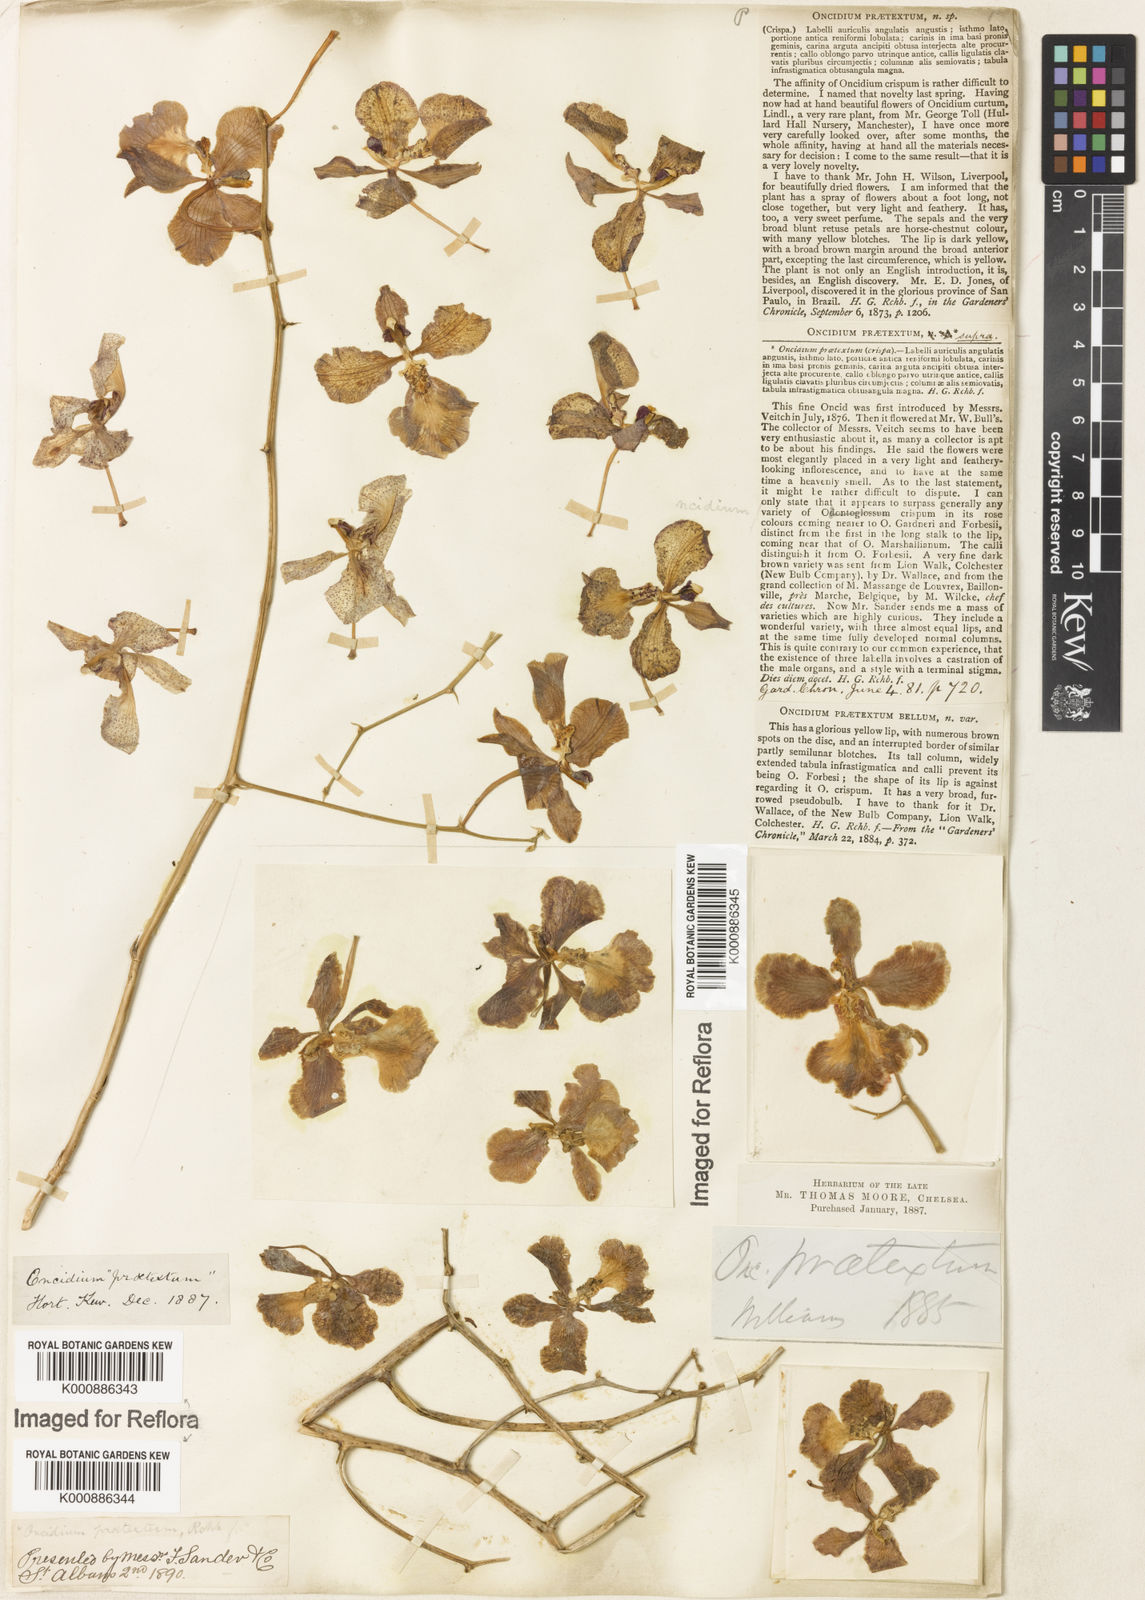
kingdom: Plantae
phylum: Tracheophyta
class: Liliopsida
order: Asparagales
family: Orchidaceae
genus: Gomesa
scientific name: Gomesa praetexta
